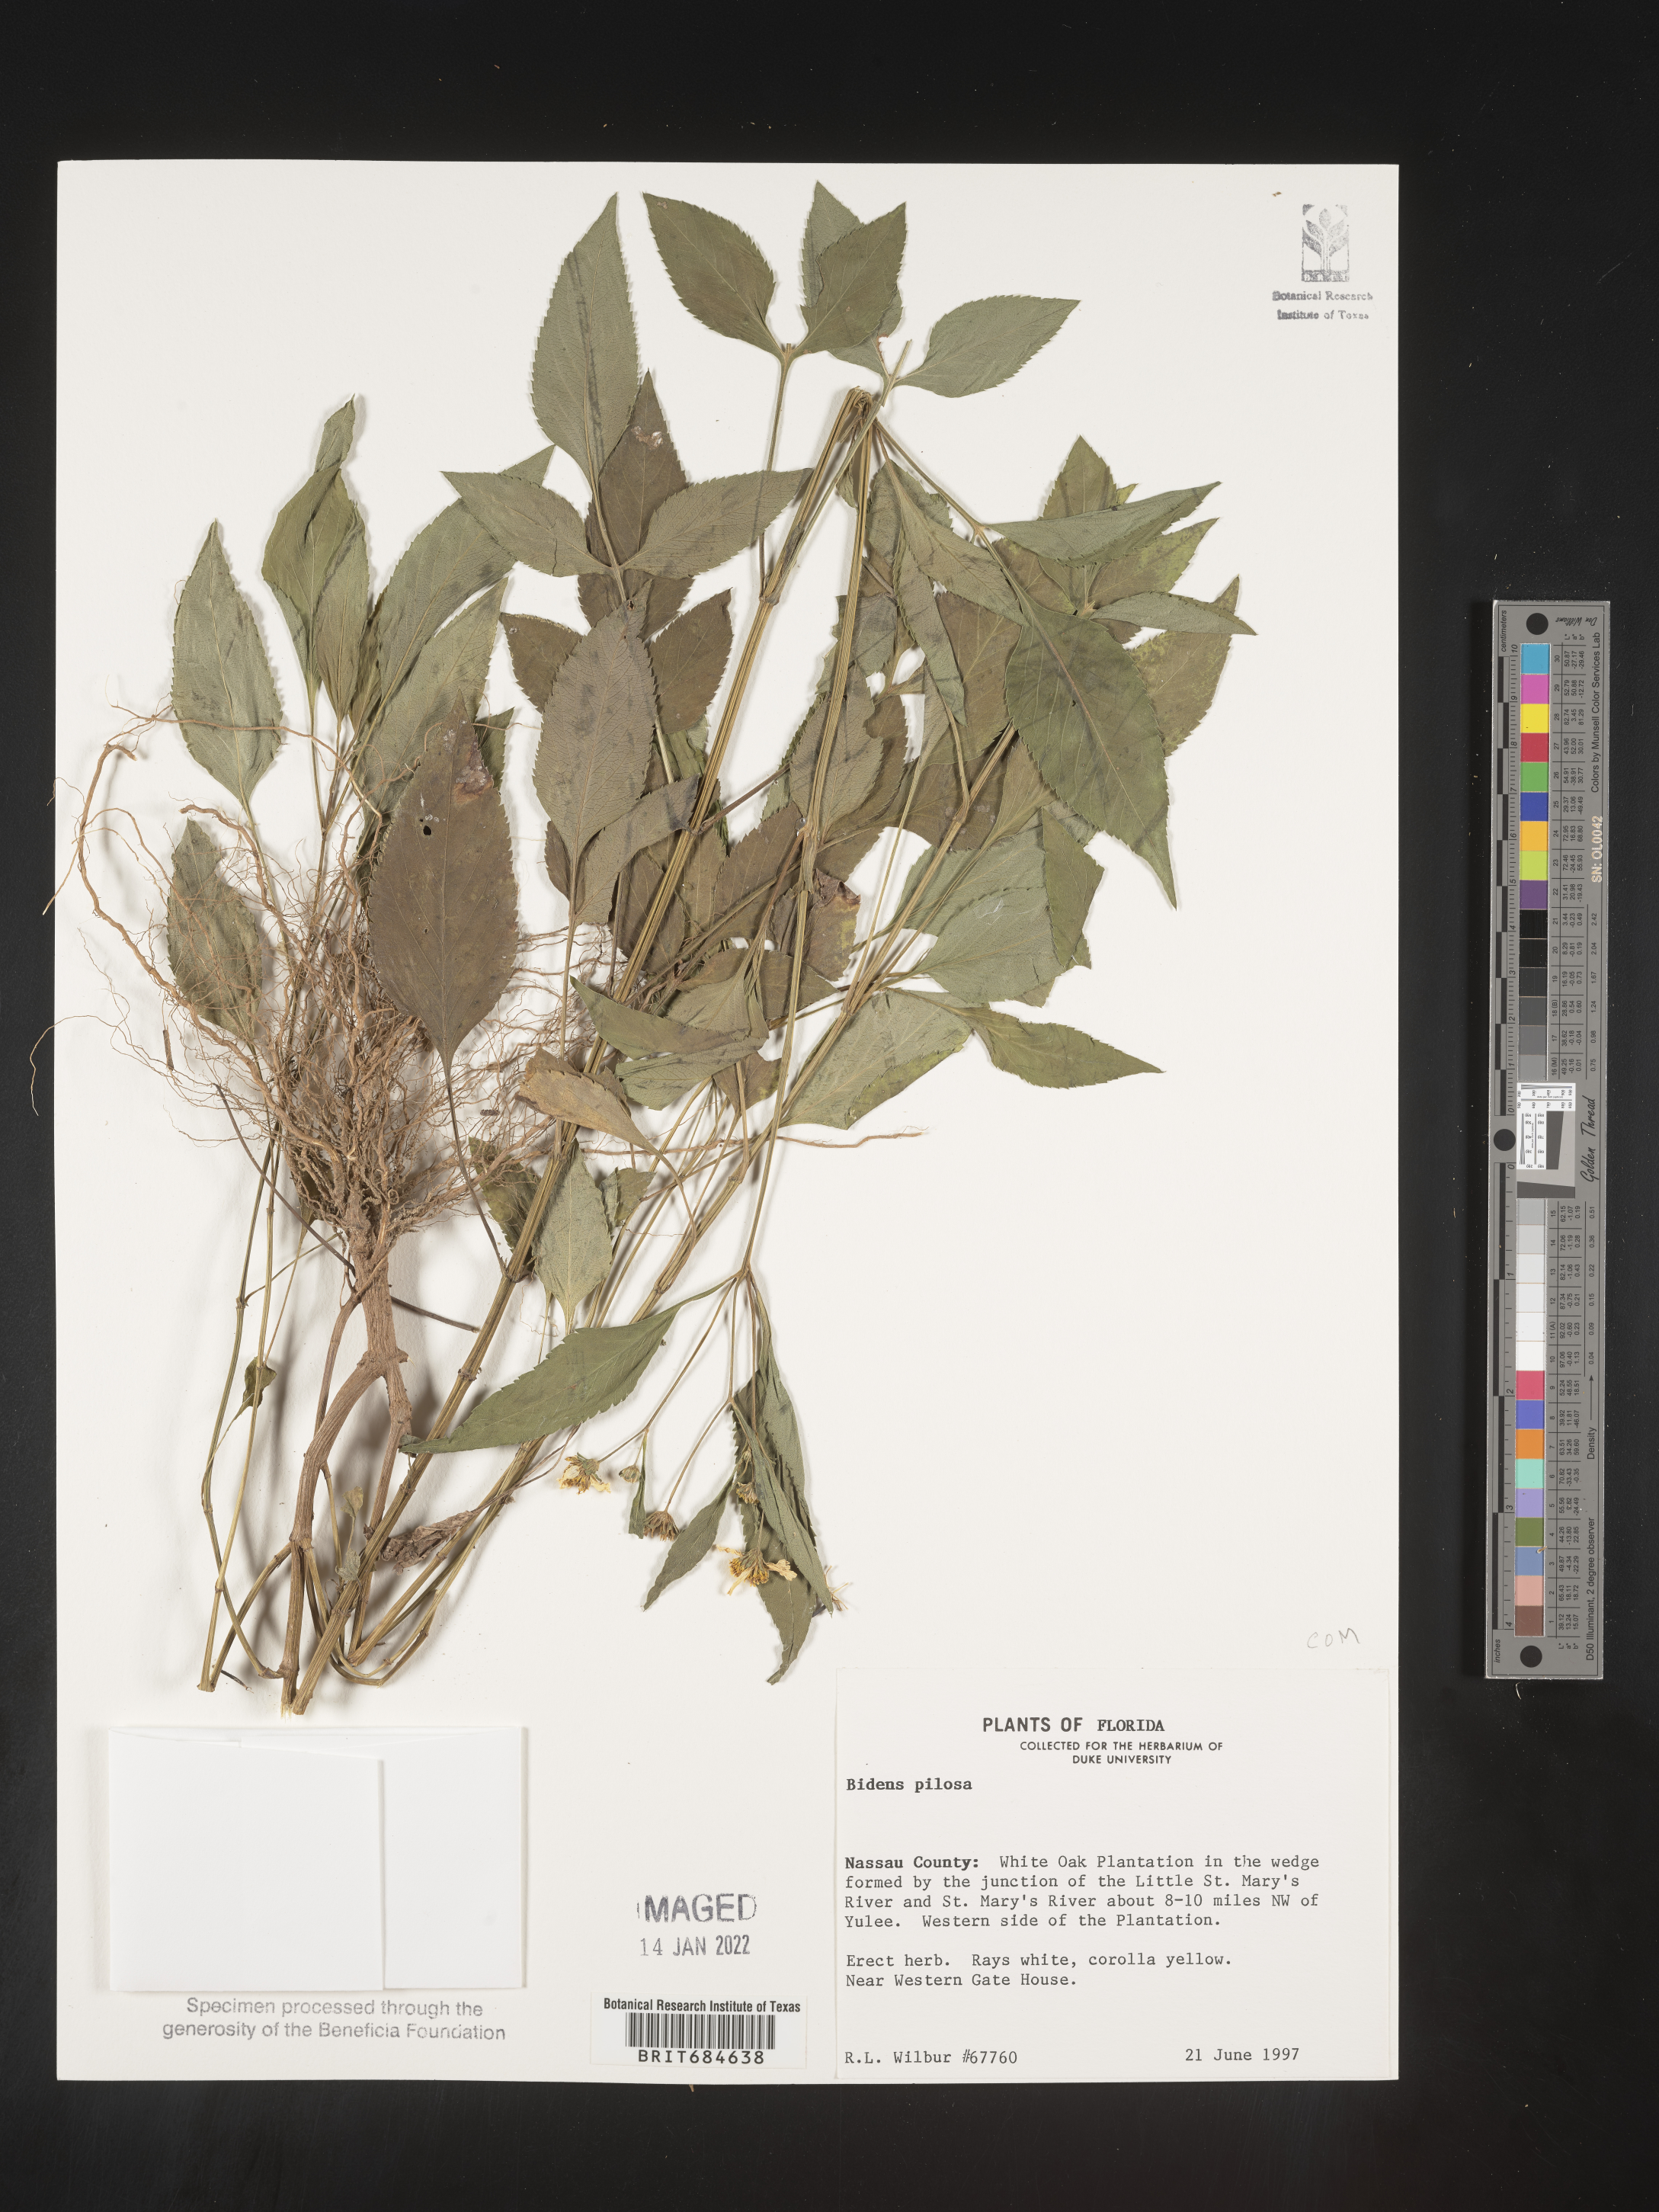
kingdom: Plantae
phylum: Tracheophyta
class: Magnoliopsida
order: Asterales
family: Asteraceae
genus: Bidens
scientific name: Bidens pilosa
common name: Black-jack
